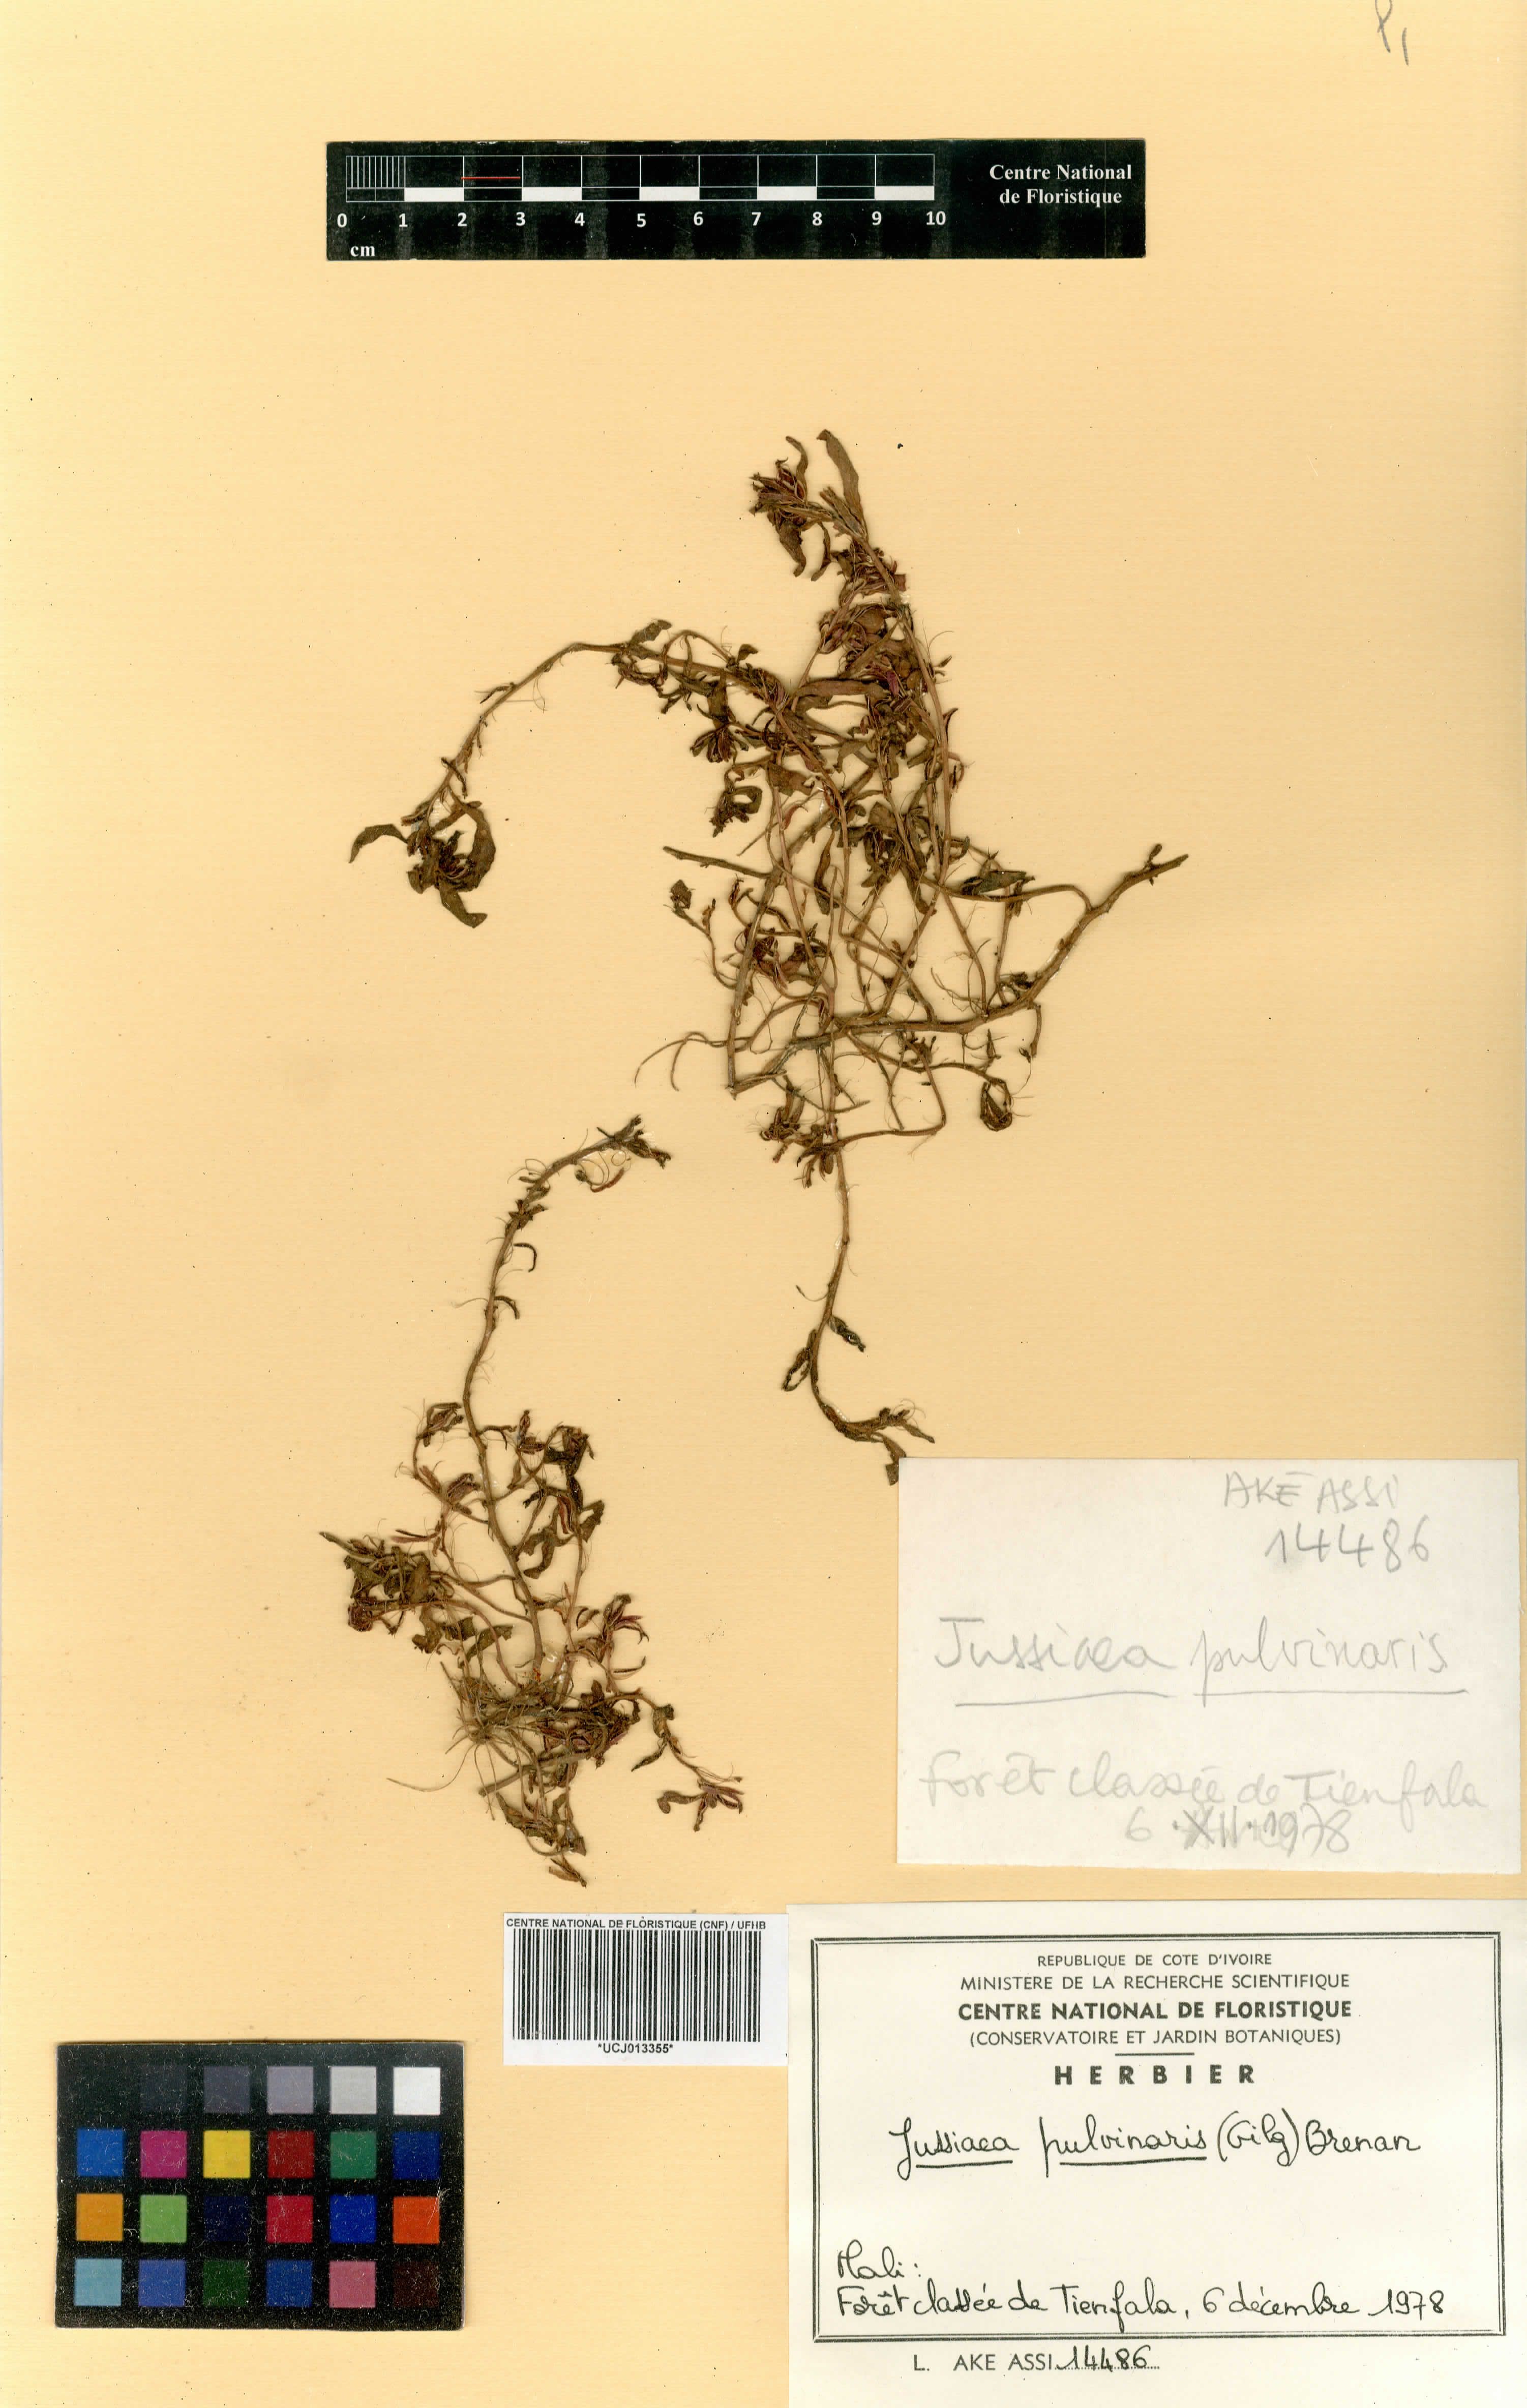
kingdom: Plantae
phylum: Tracheophyta
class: Magnoliopsida
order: Myrtales
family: Onagraceae
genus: Ludwigia
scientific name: Ludwigia senegalensis
